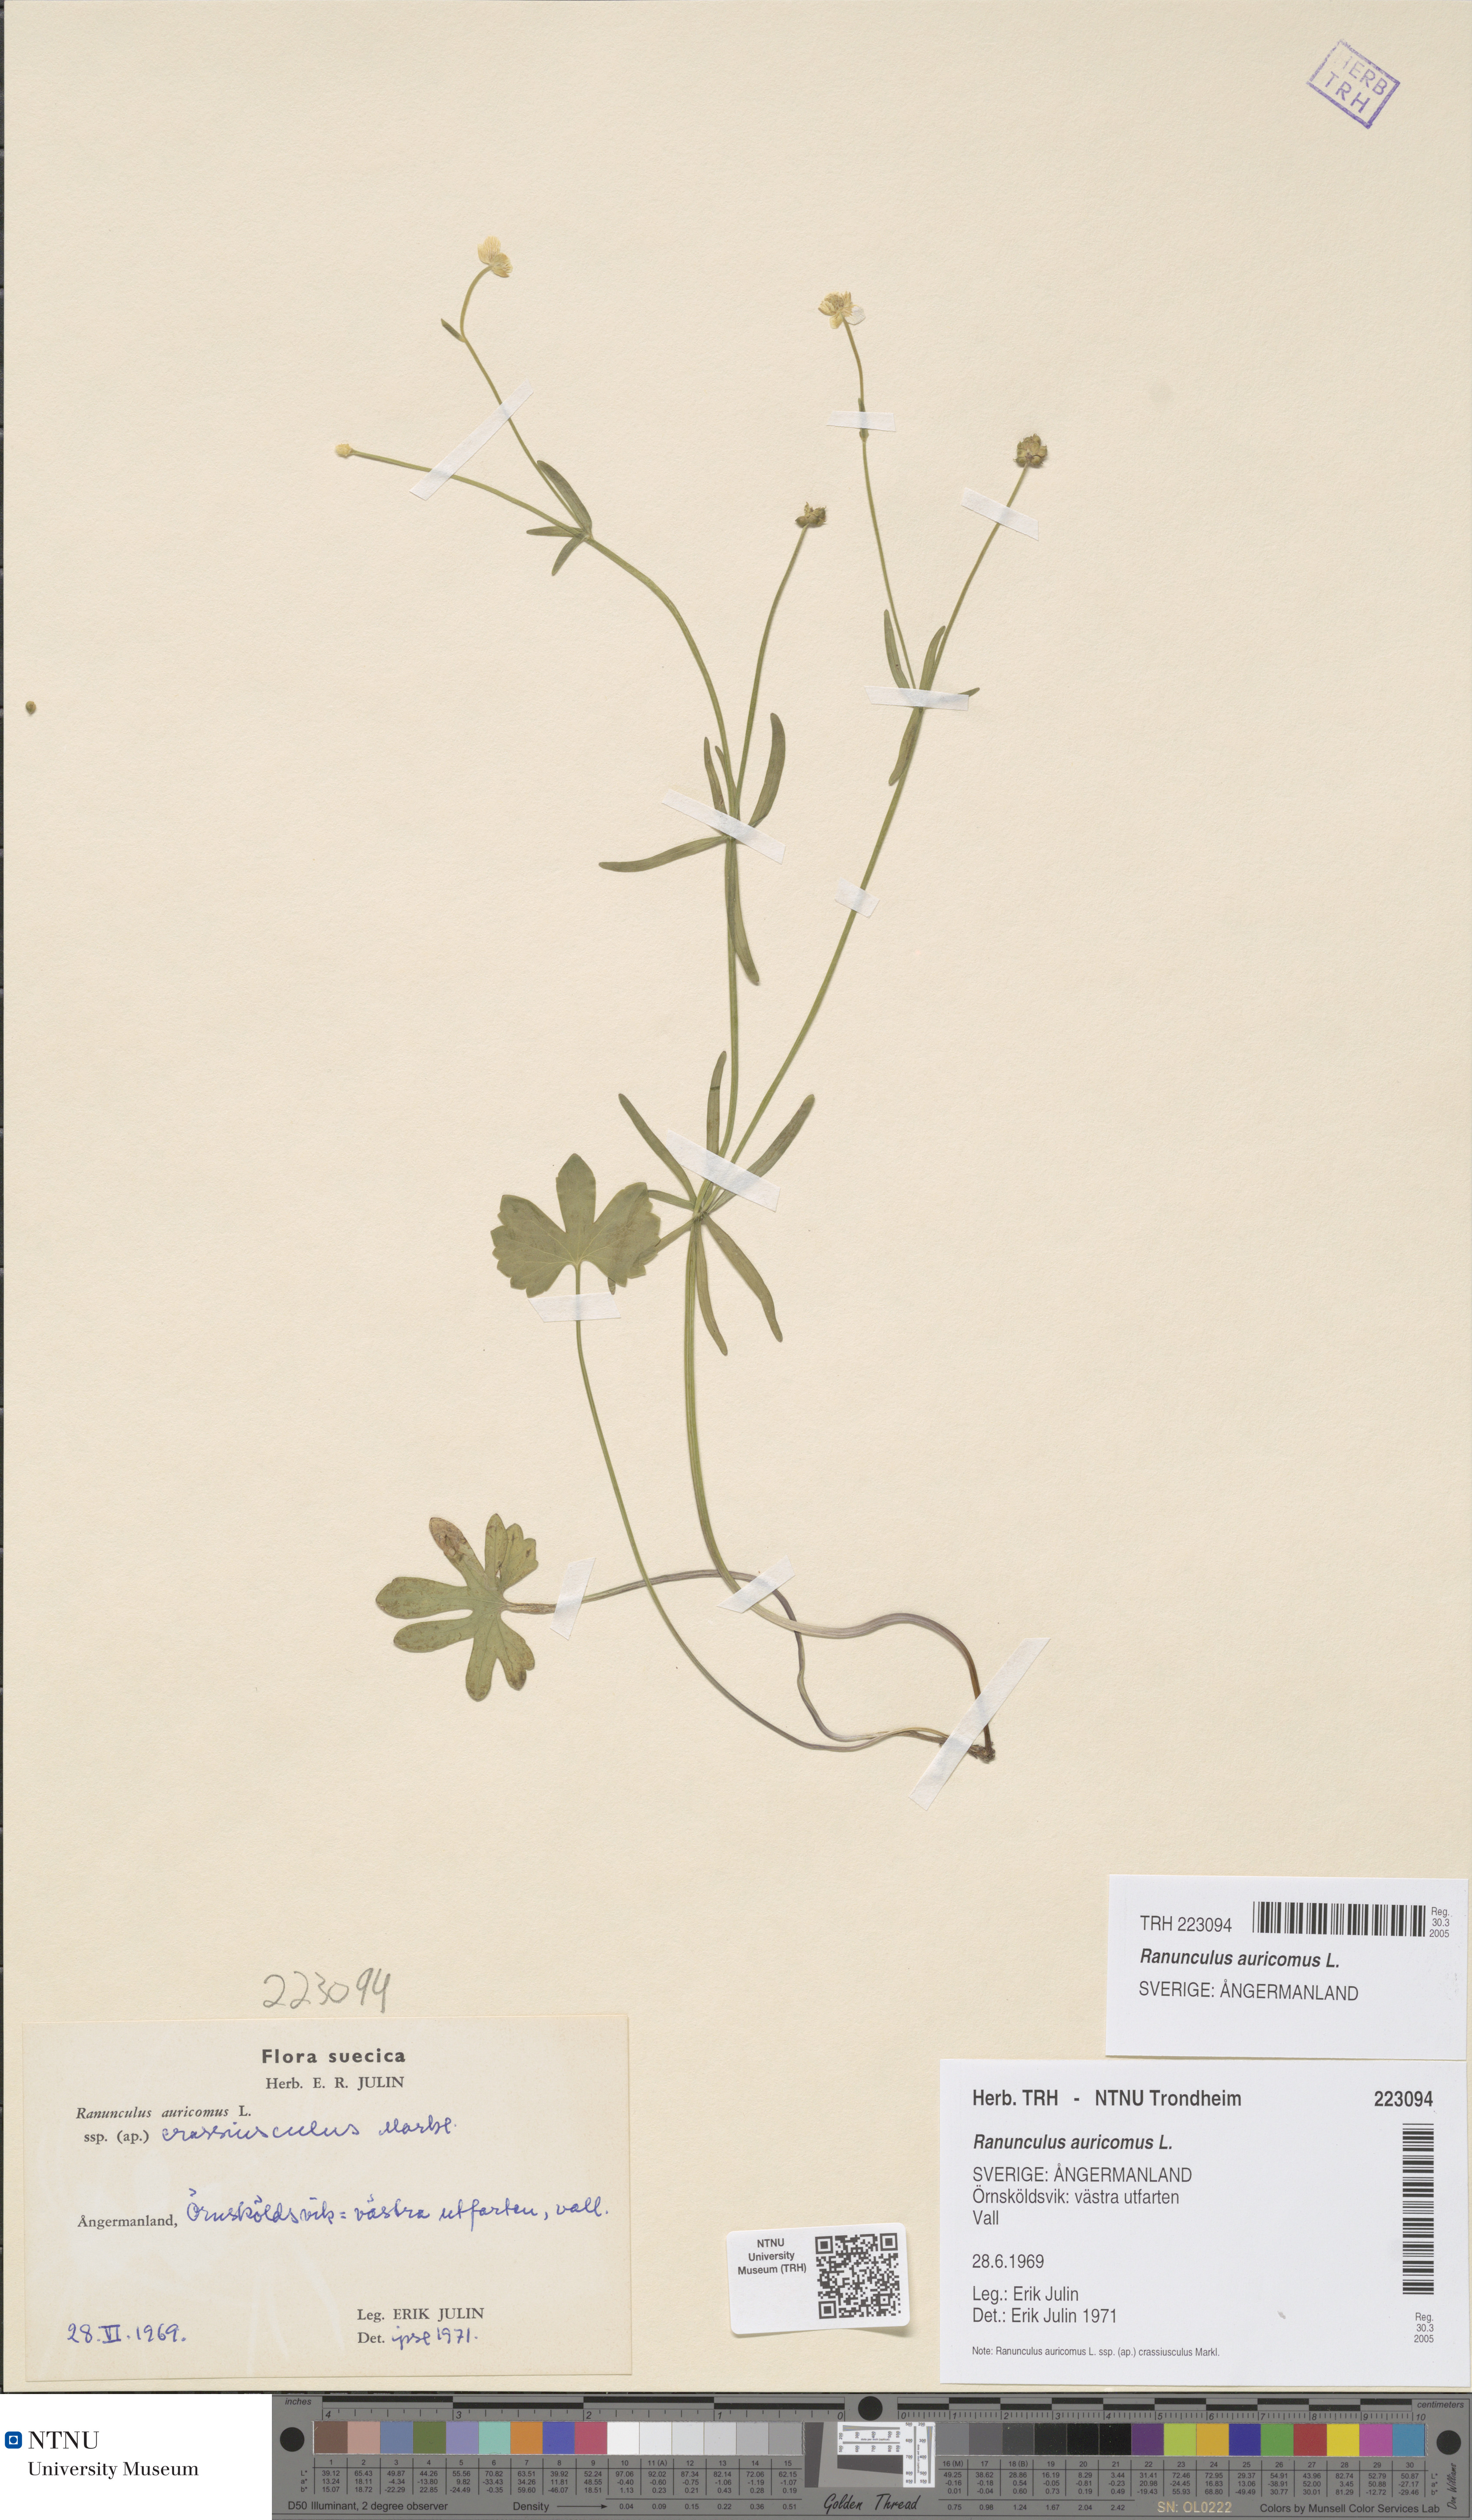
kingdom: Plantae
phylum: Tracheophyta
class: Magnoliopsida
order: Ranunculales
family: Ranunculaceae
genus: Ranunculus
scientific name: Ranunculus auricomus
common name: Goldilocks buttercup
